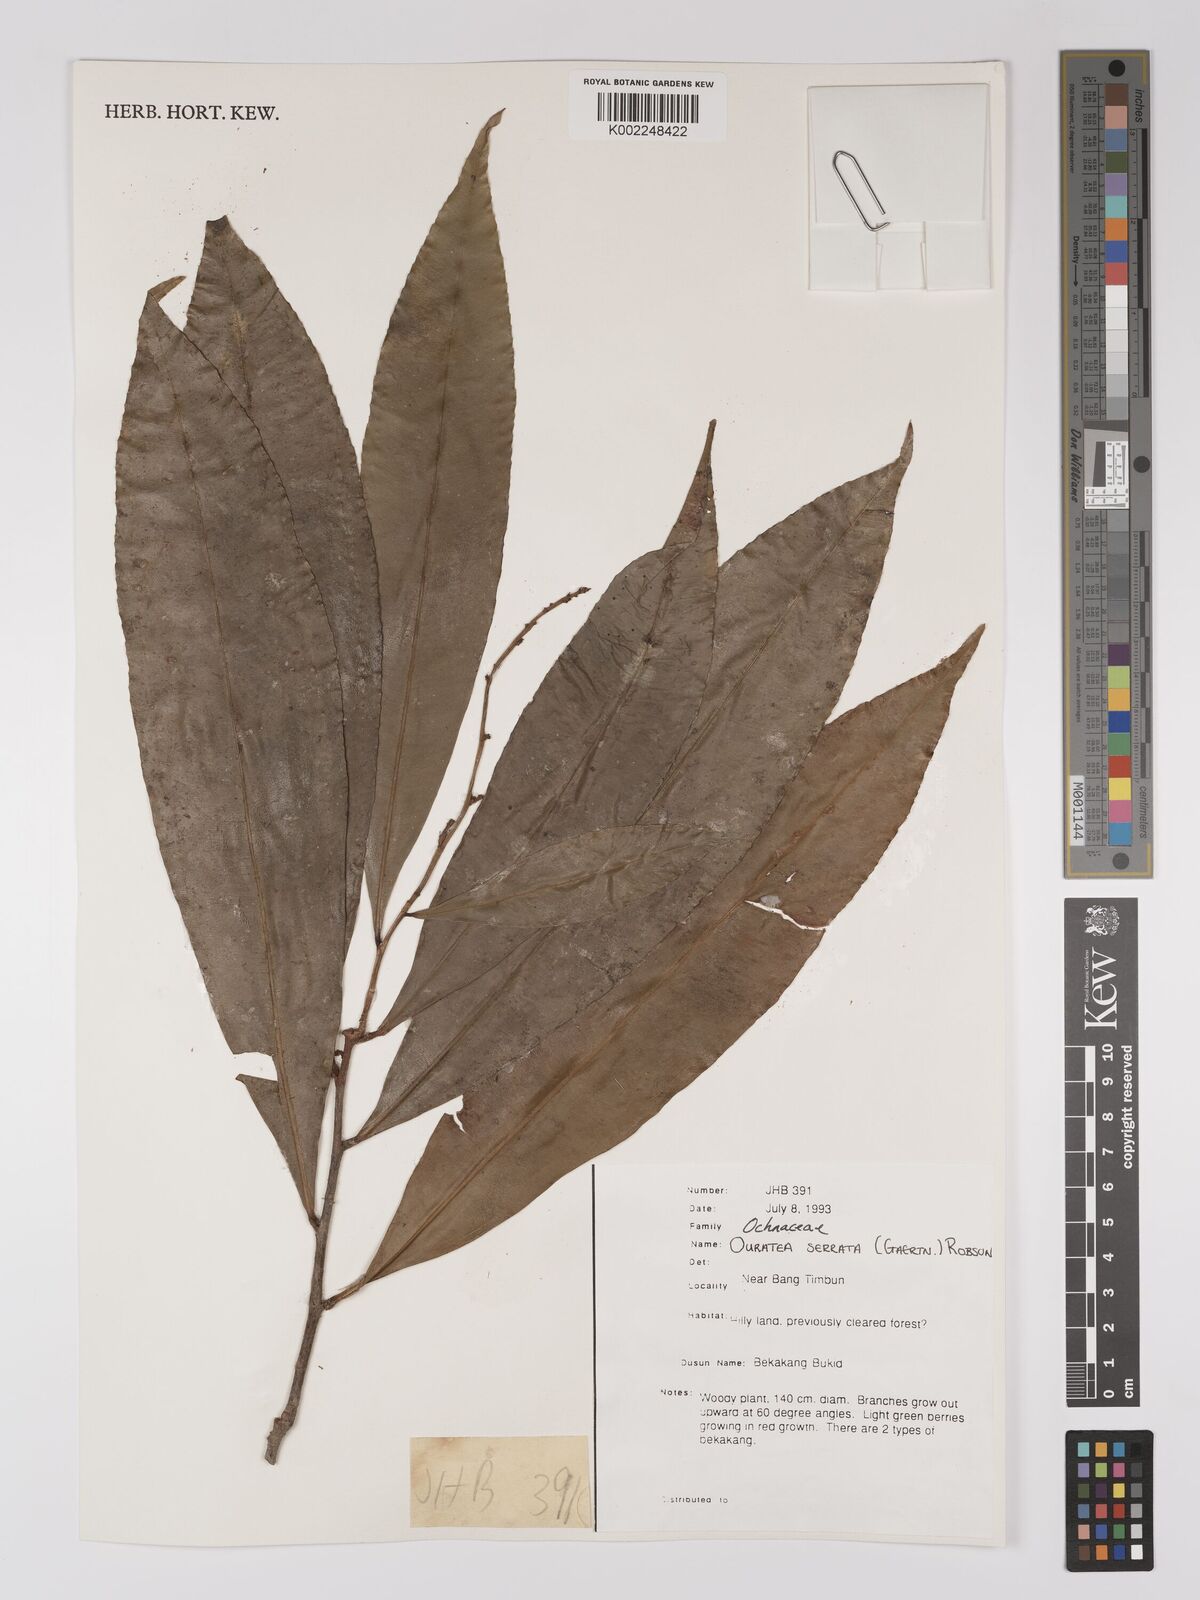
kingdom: Plantae
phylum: Tracheophyta
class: Magnoliopsida
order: Malpighiales
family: Ochnaceae
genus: Gomphia
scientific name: Gomphia serrata
